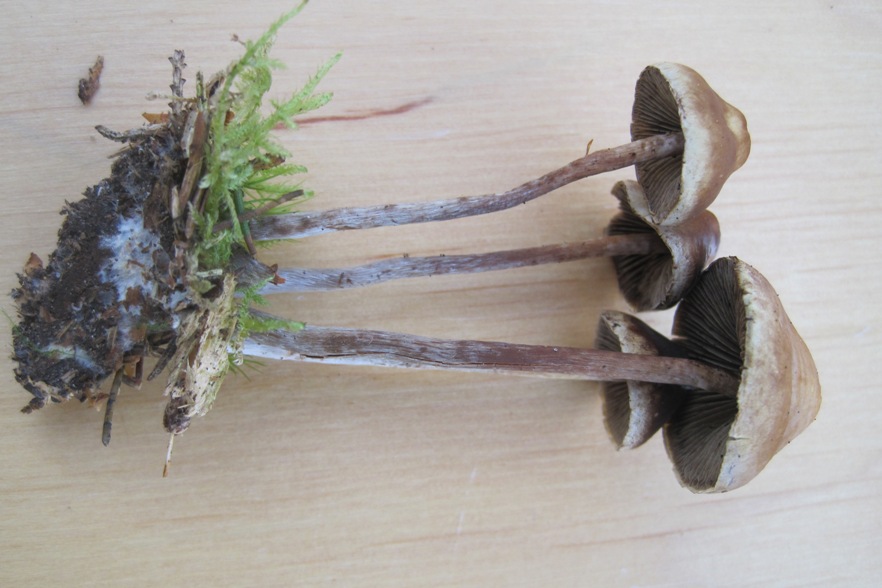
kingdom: Fungi
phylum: Basidiomycota
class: Agaricomycetes
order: Agaricales
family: Strophariaceae
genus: Hypholoma
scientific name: Hypholoma marginatum
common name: enlig svovlhat
